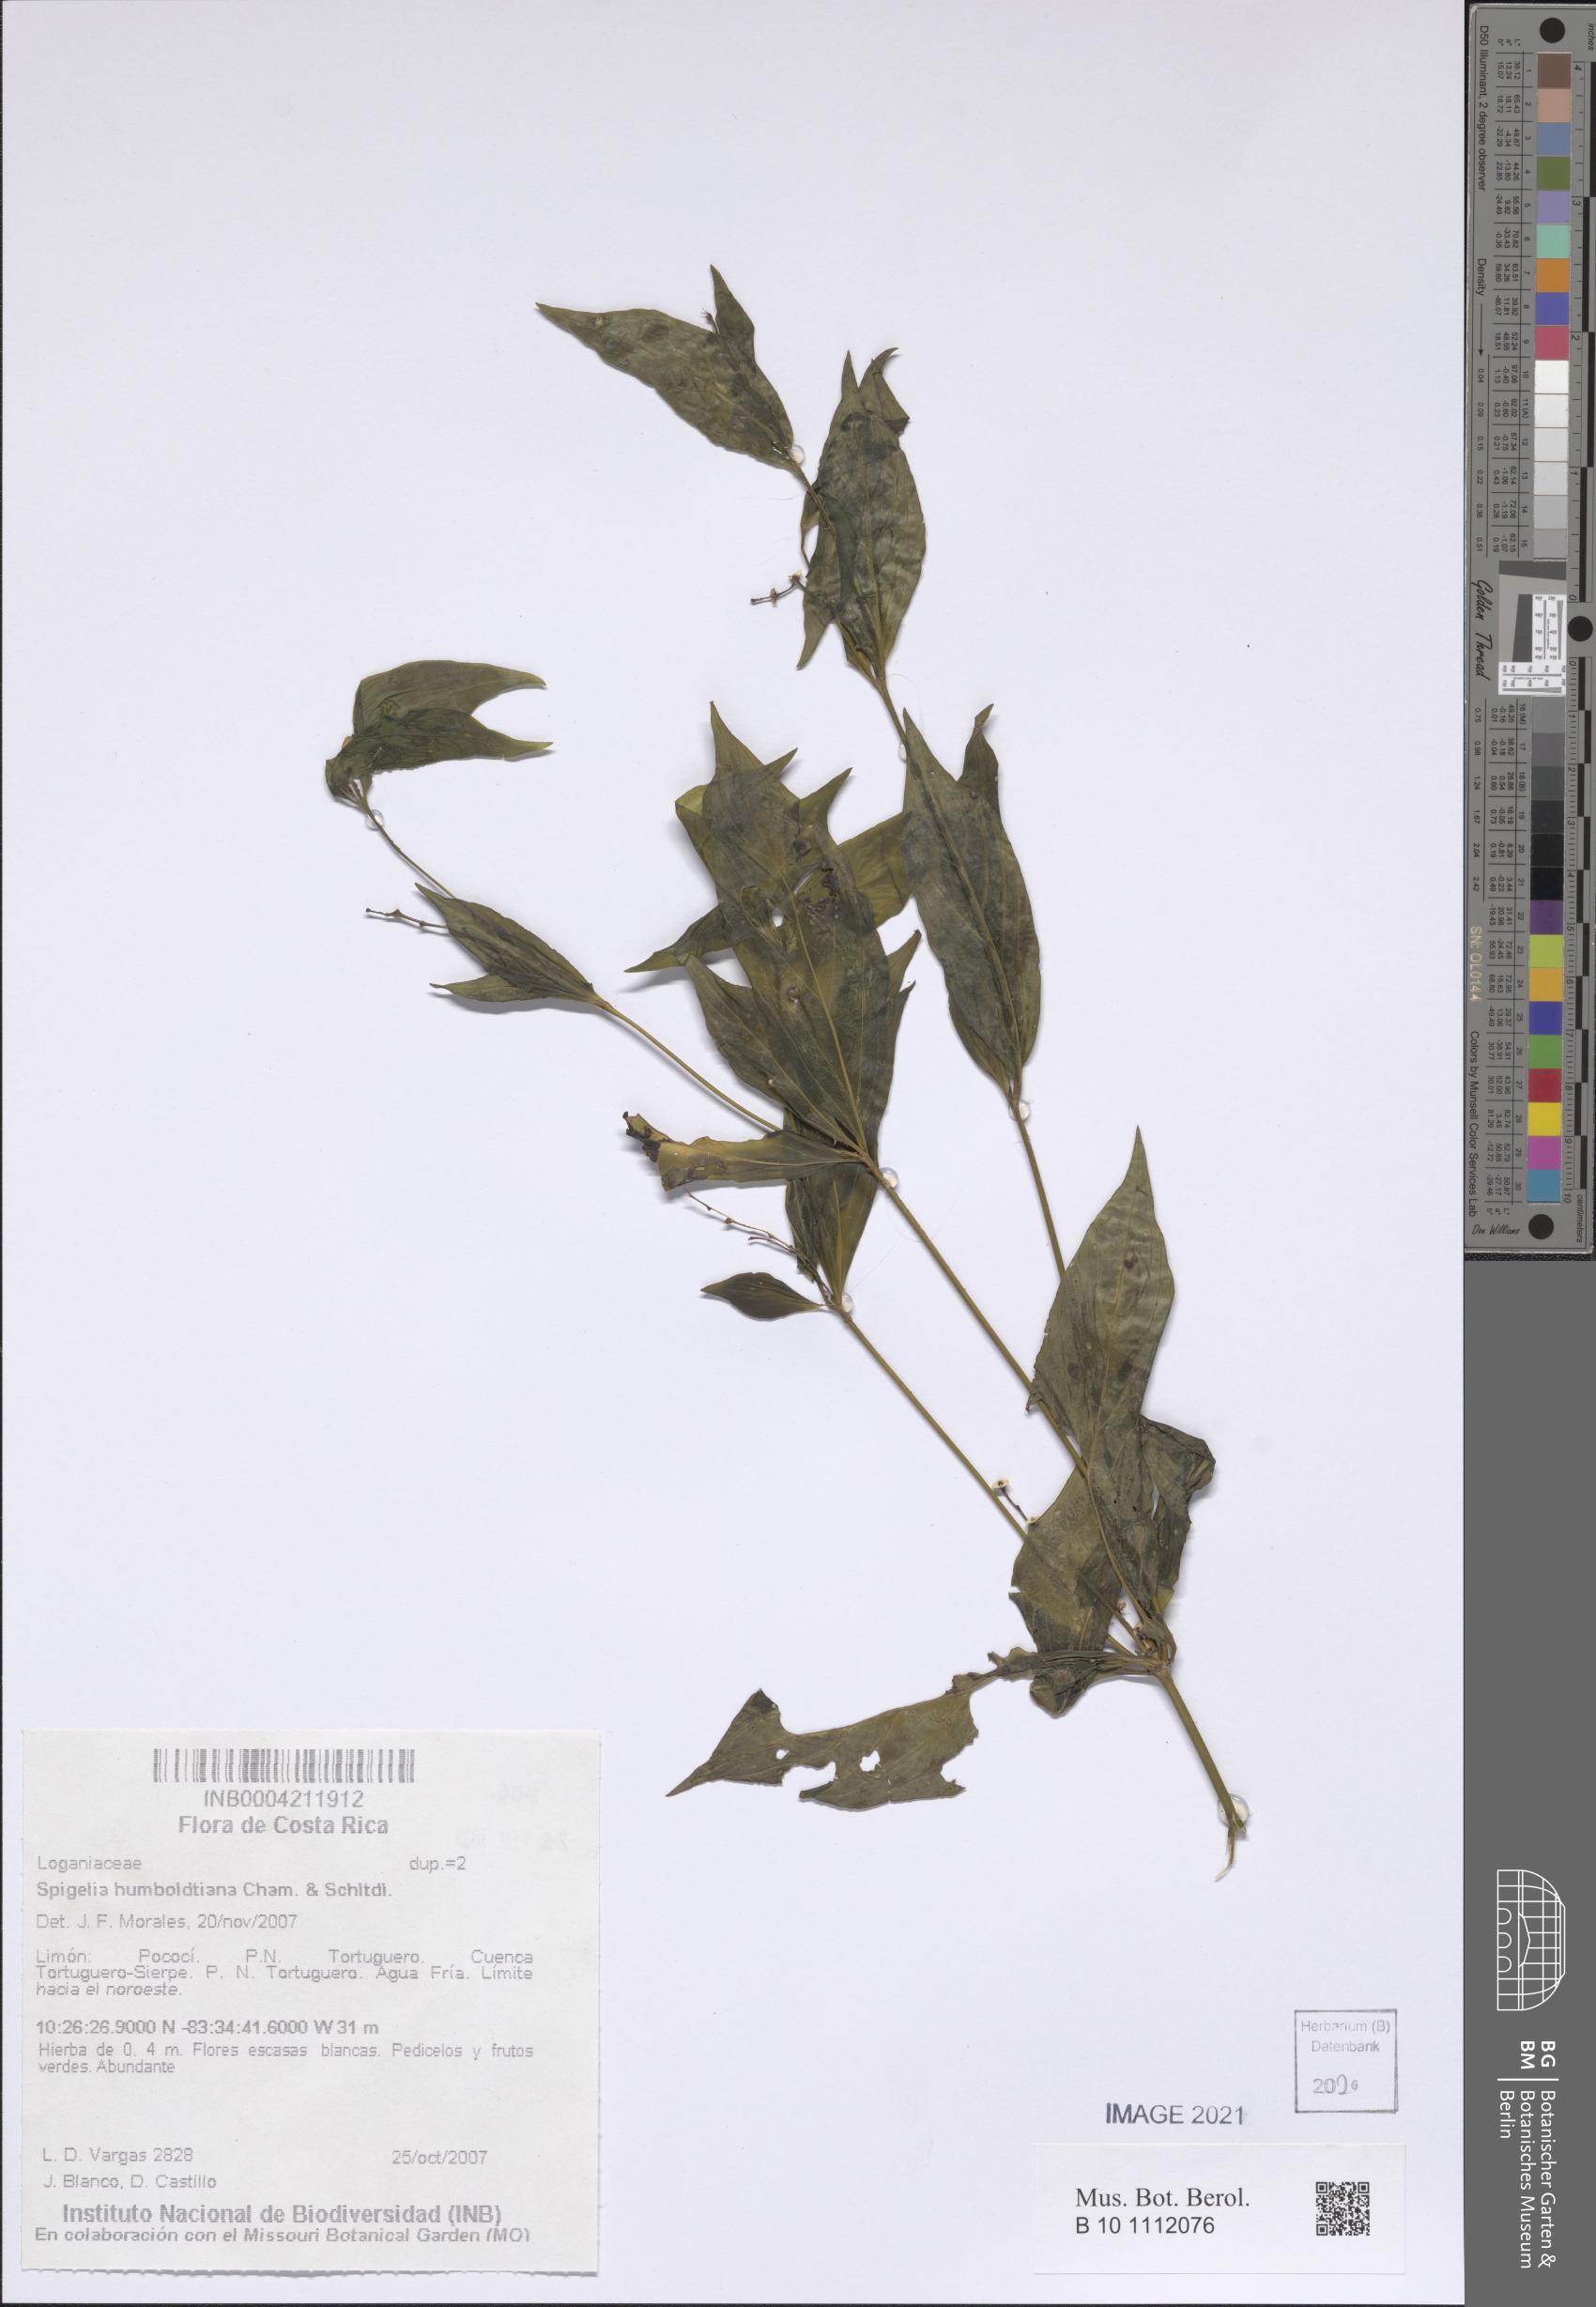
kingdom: Plantae
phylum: Tracheophyta
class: Magnoliopsida
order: Gentianales
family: Loganiaceae
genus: Spigelia
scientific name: Spigelia humboldtiana
